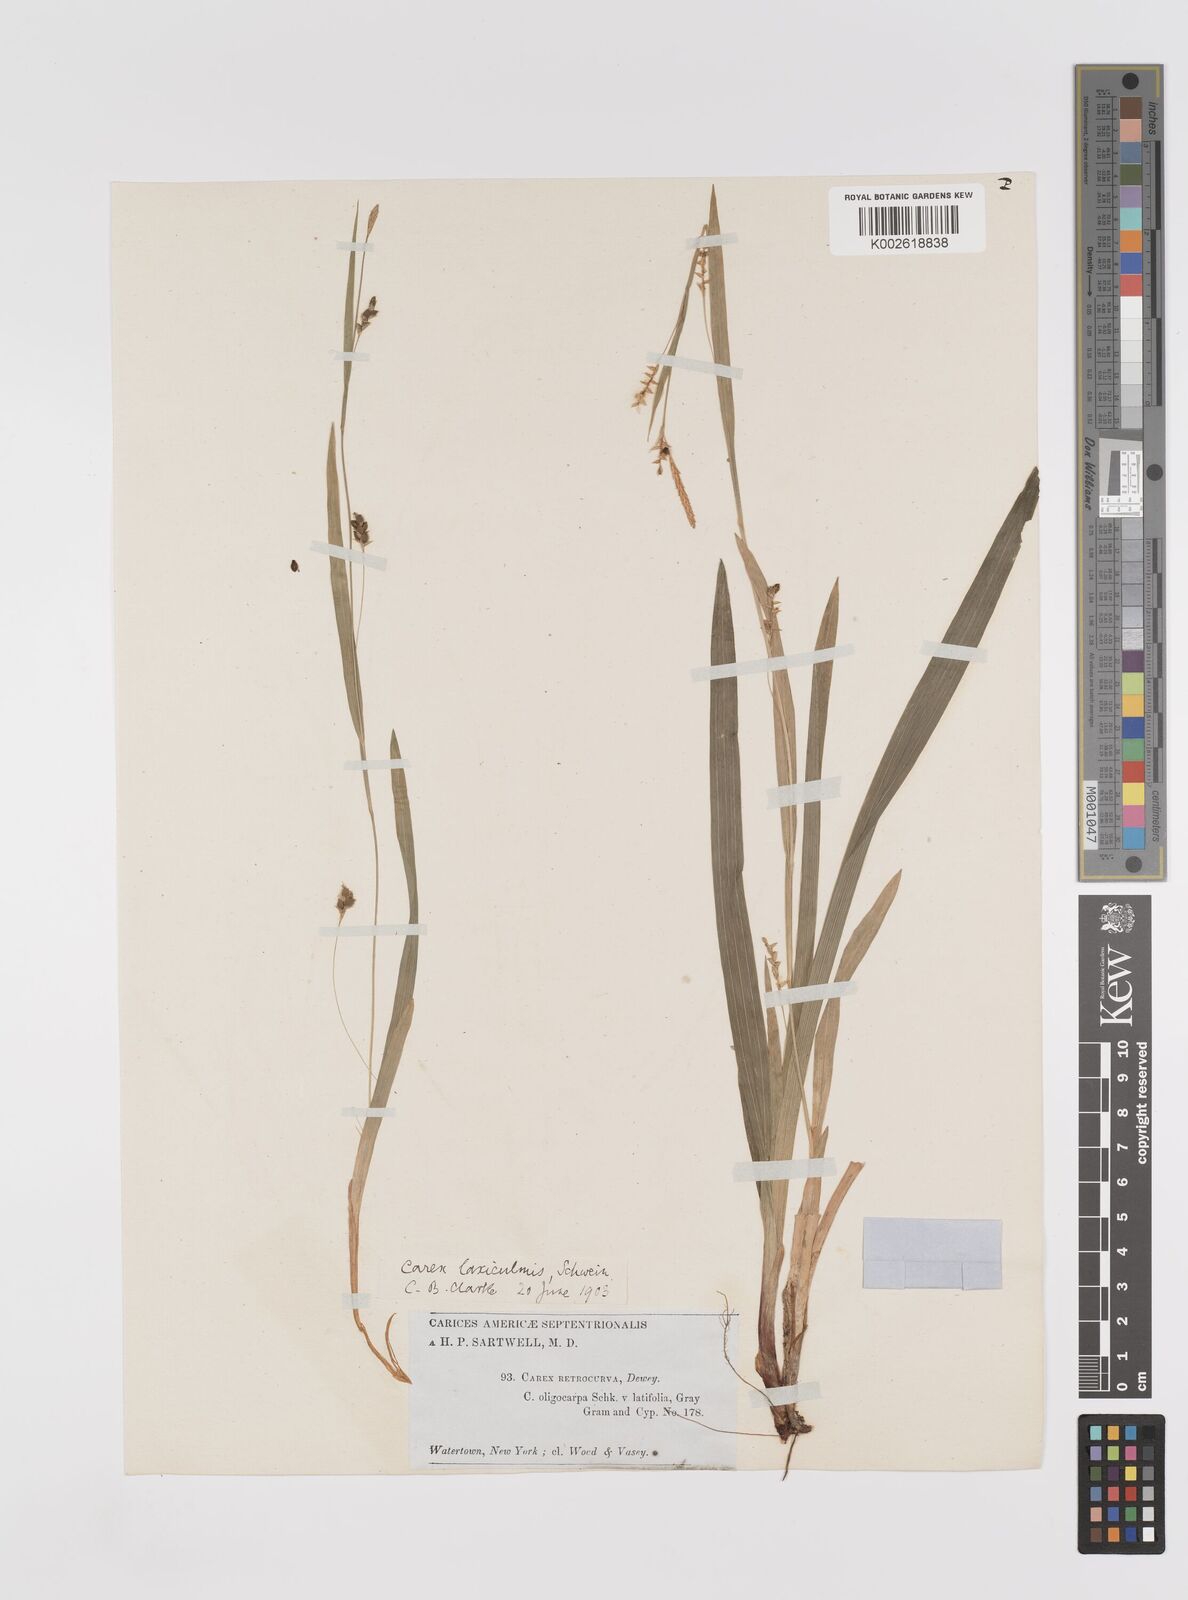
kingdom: Plantae
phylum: Tracheophyta
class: Liliopsida
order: Poales
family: Cyperaceae
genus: Carex
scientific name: Carex laxiculmis
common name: Spreading sedge
